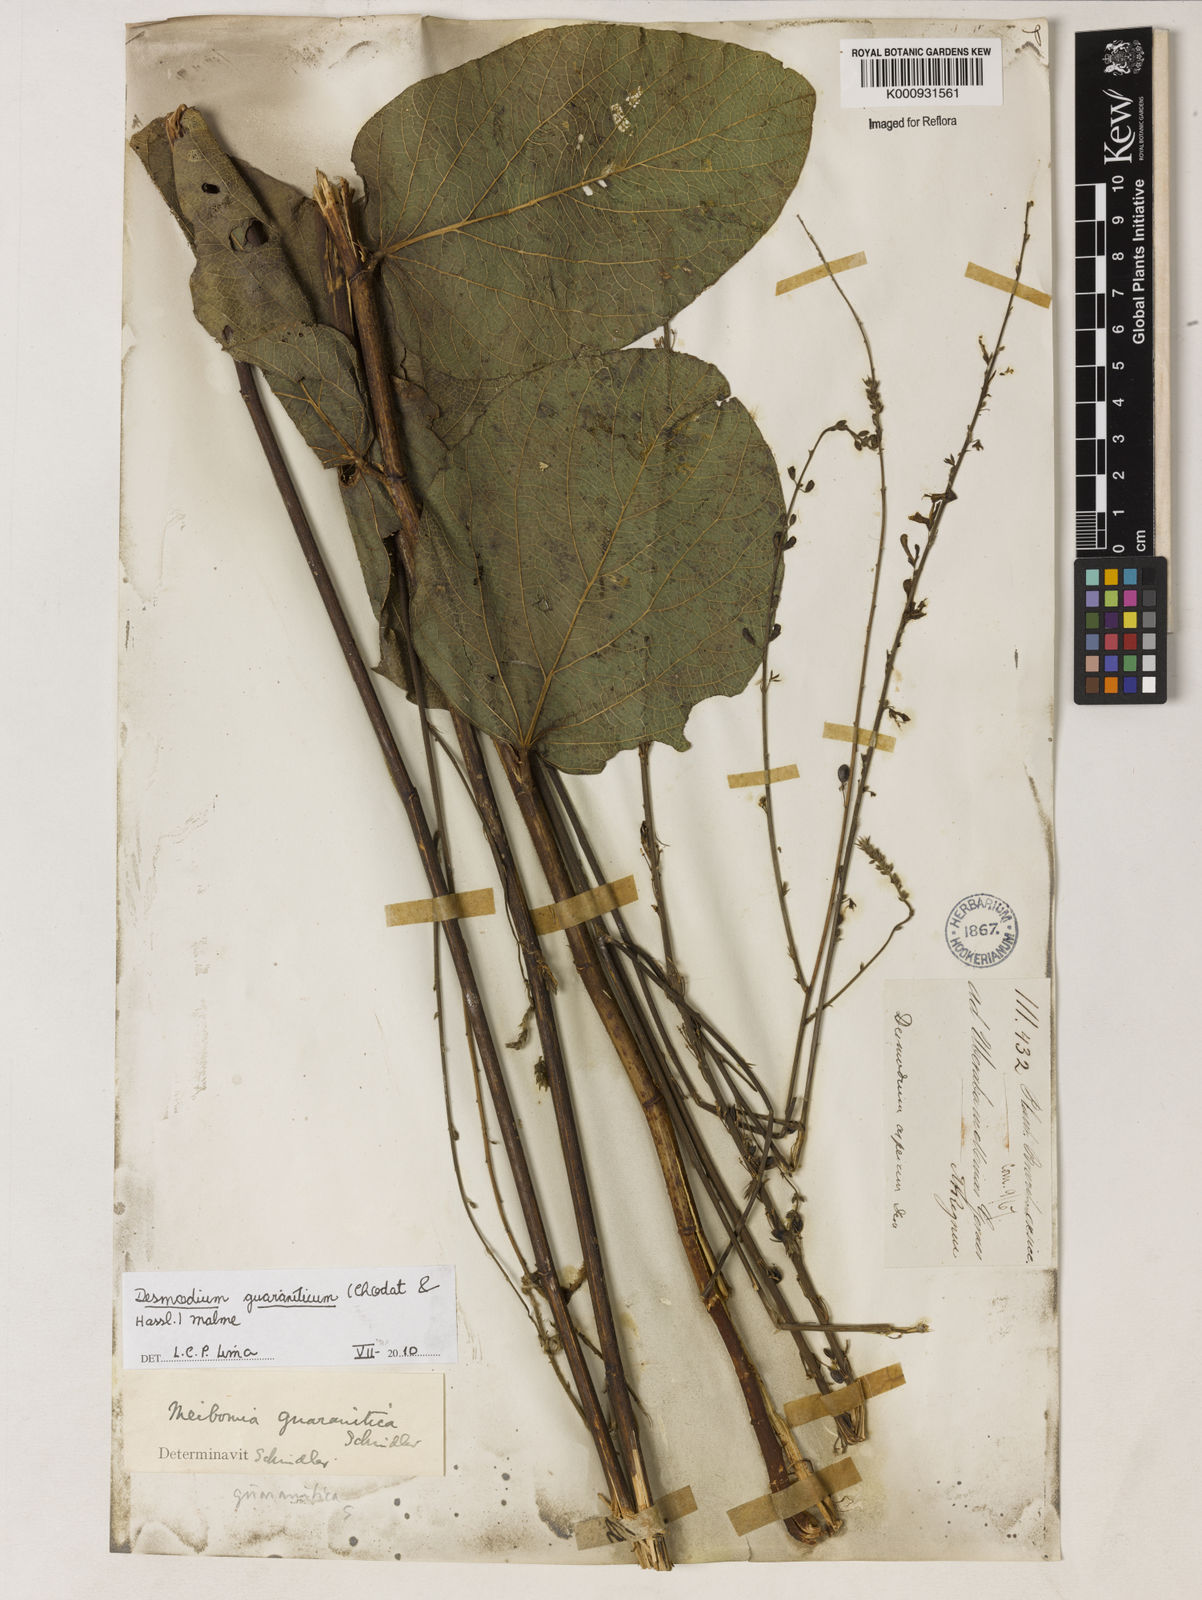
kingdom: Plantae
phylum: Tracheophyta
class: Magnoliopsida
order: Fabales
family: Fabaceae
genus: Desmodium
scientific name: Desmodium guaraniticum
